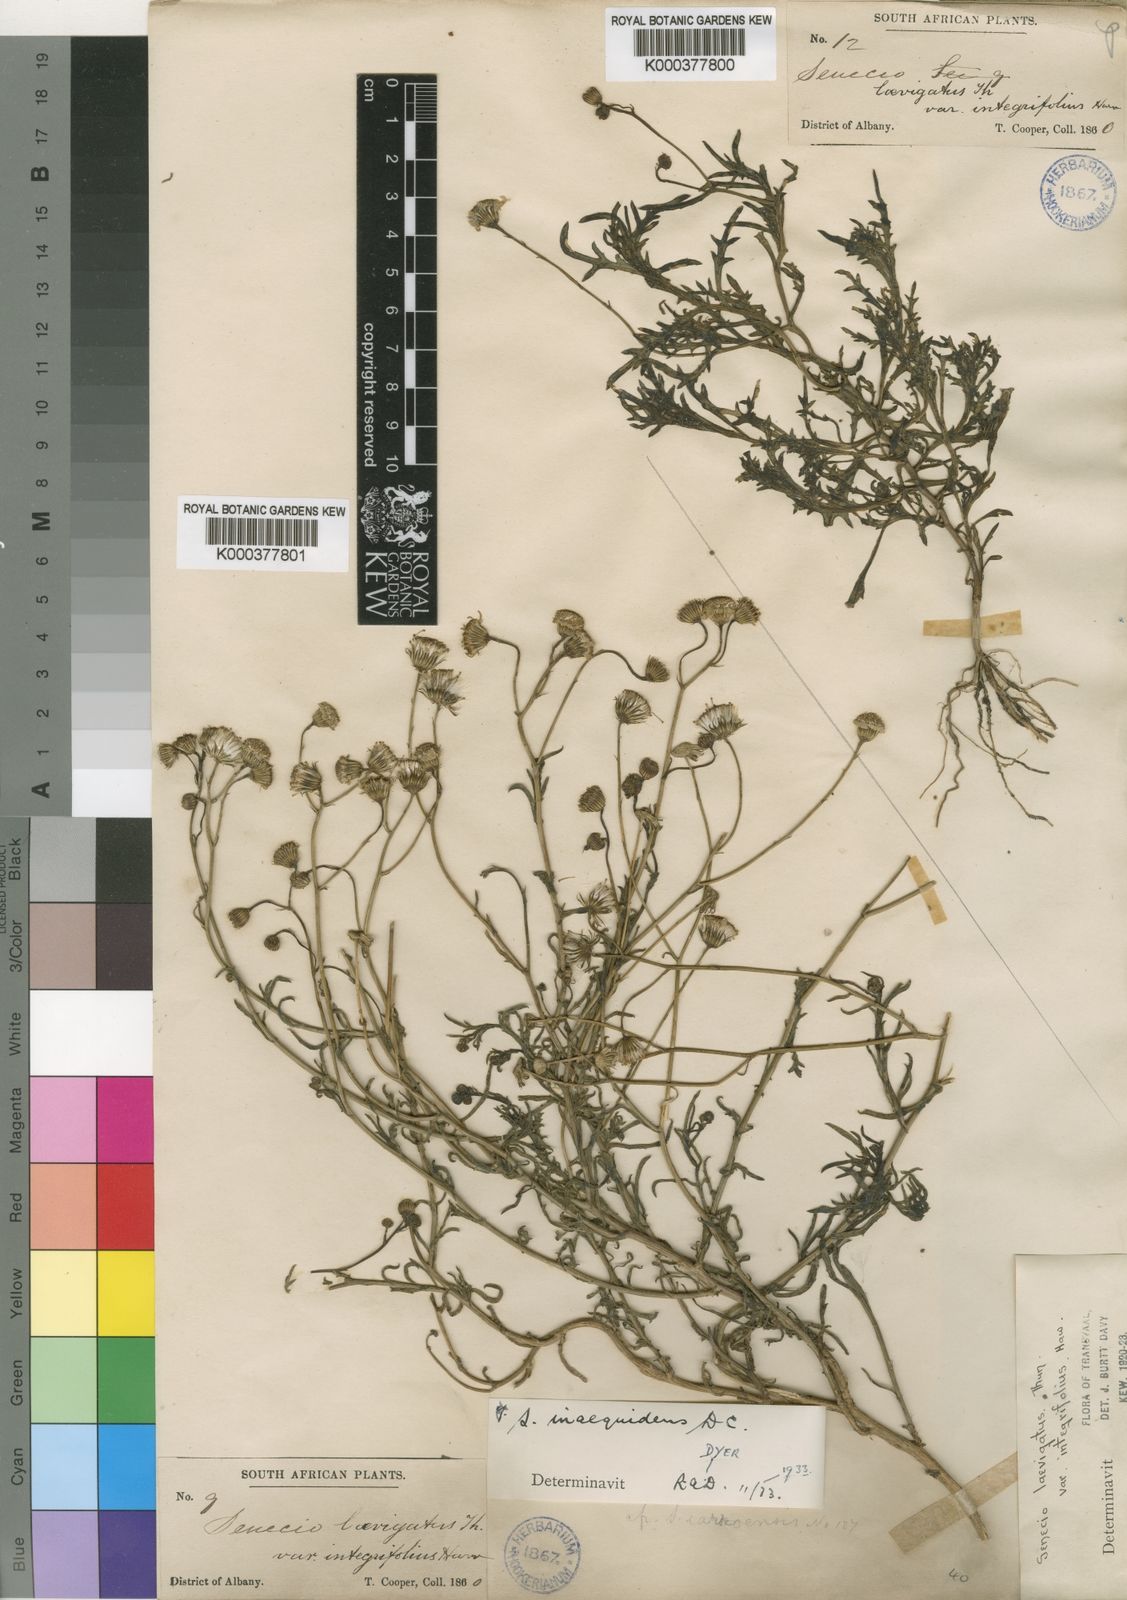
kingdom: Plantae
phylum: Tracheophyta
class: Magnoliopsida
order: Asterales
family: Asteraceae
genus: Senecio
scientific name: Senecio laevigatus
